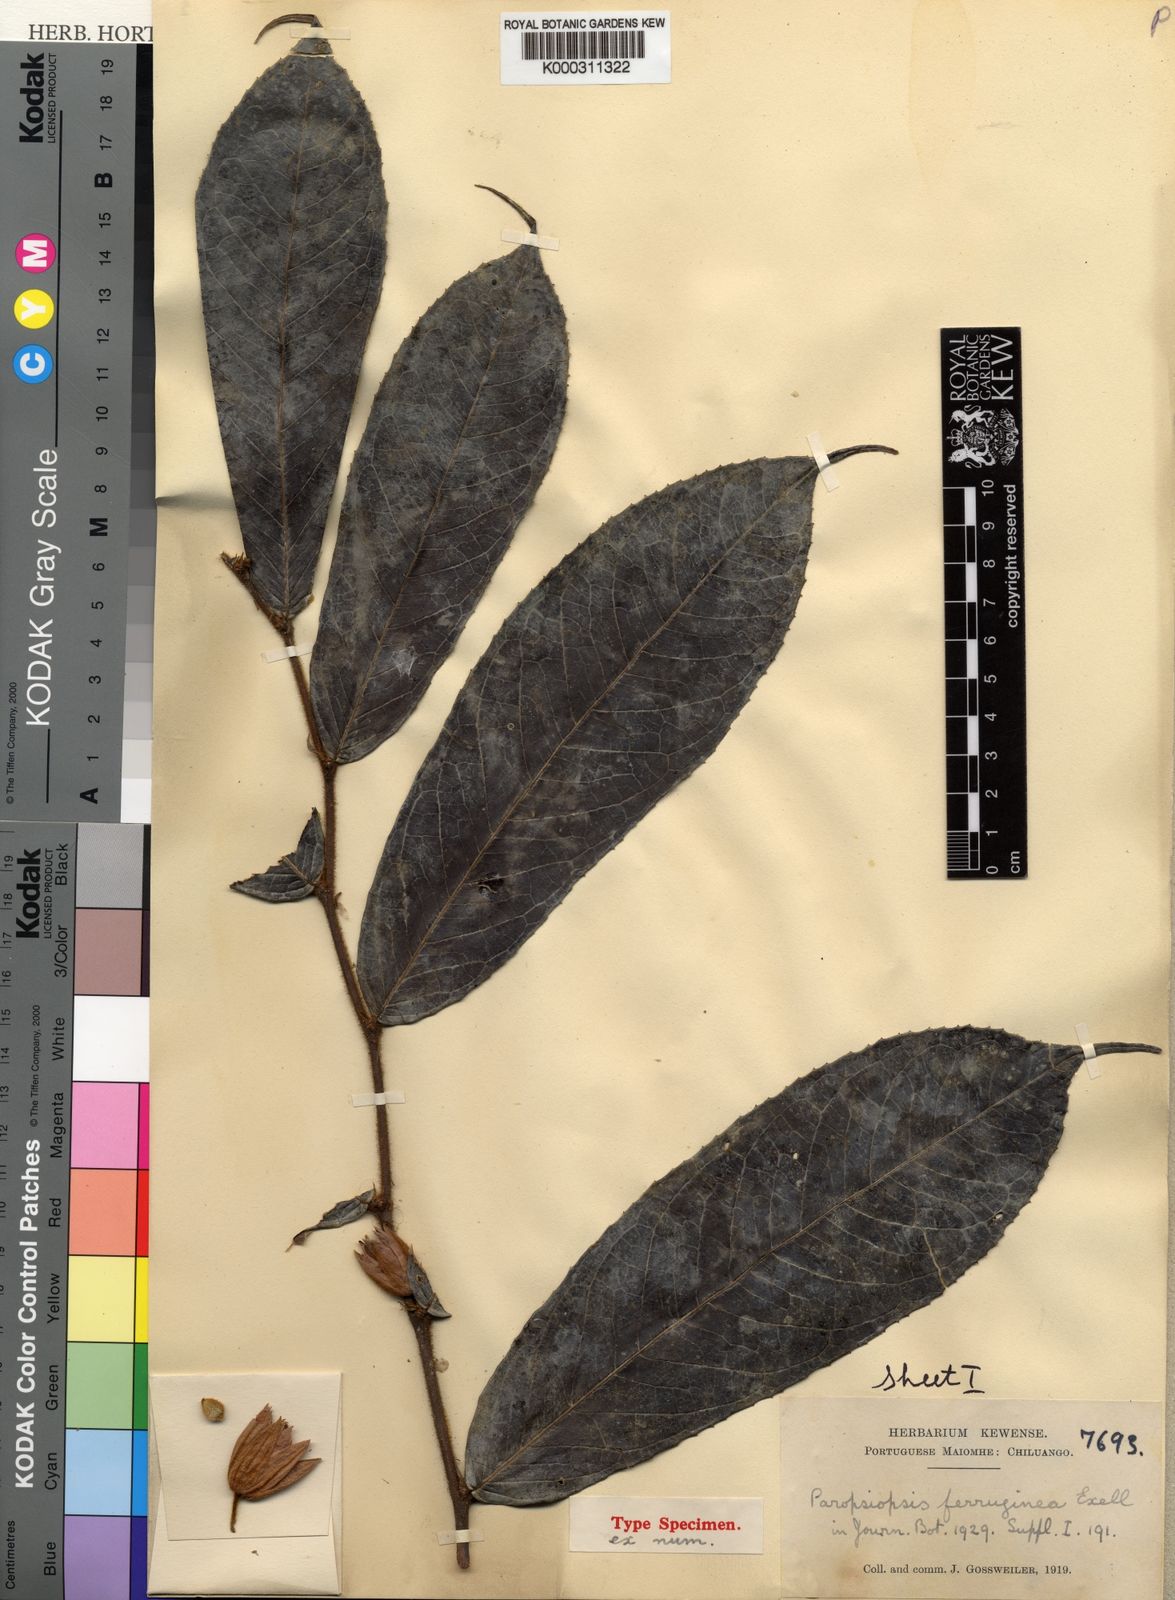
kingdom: Plantae
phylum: Tracheophyta
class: Magnoliopsida
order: Malpighiales
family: Passifloraceae
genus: Paropsiopsis
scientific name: Paropsiopsis ferruginea
